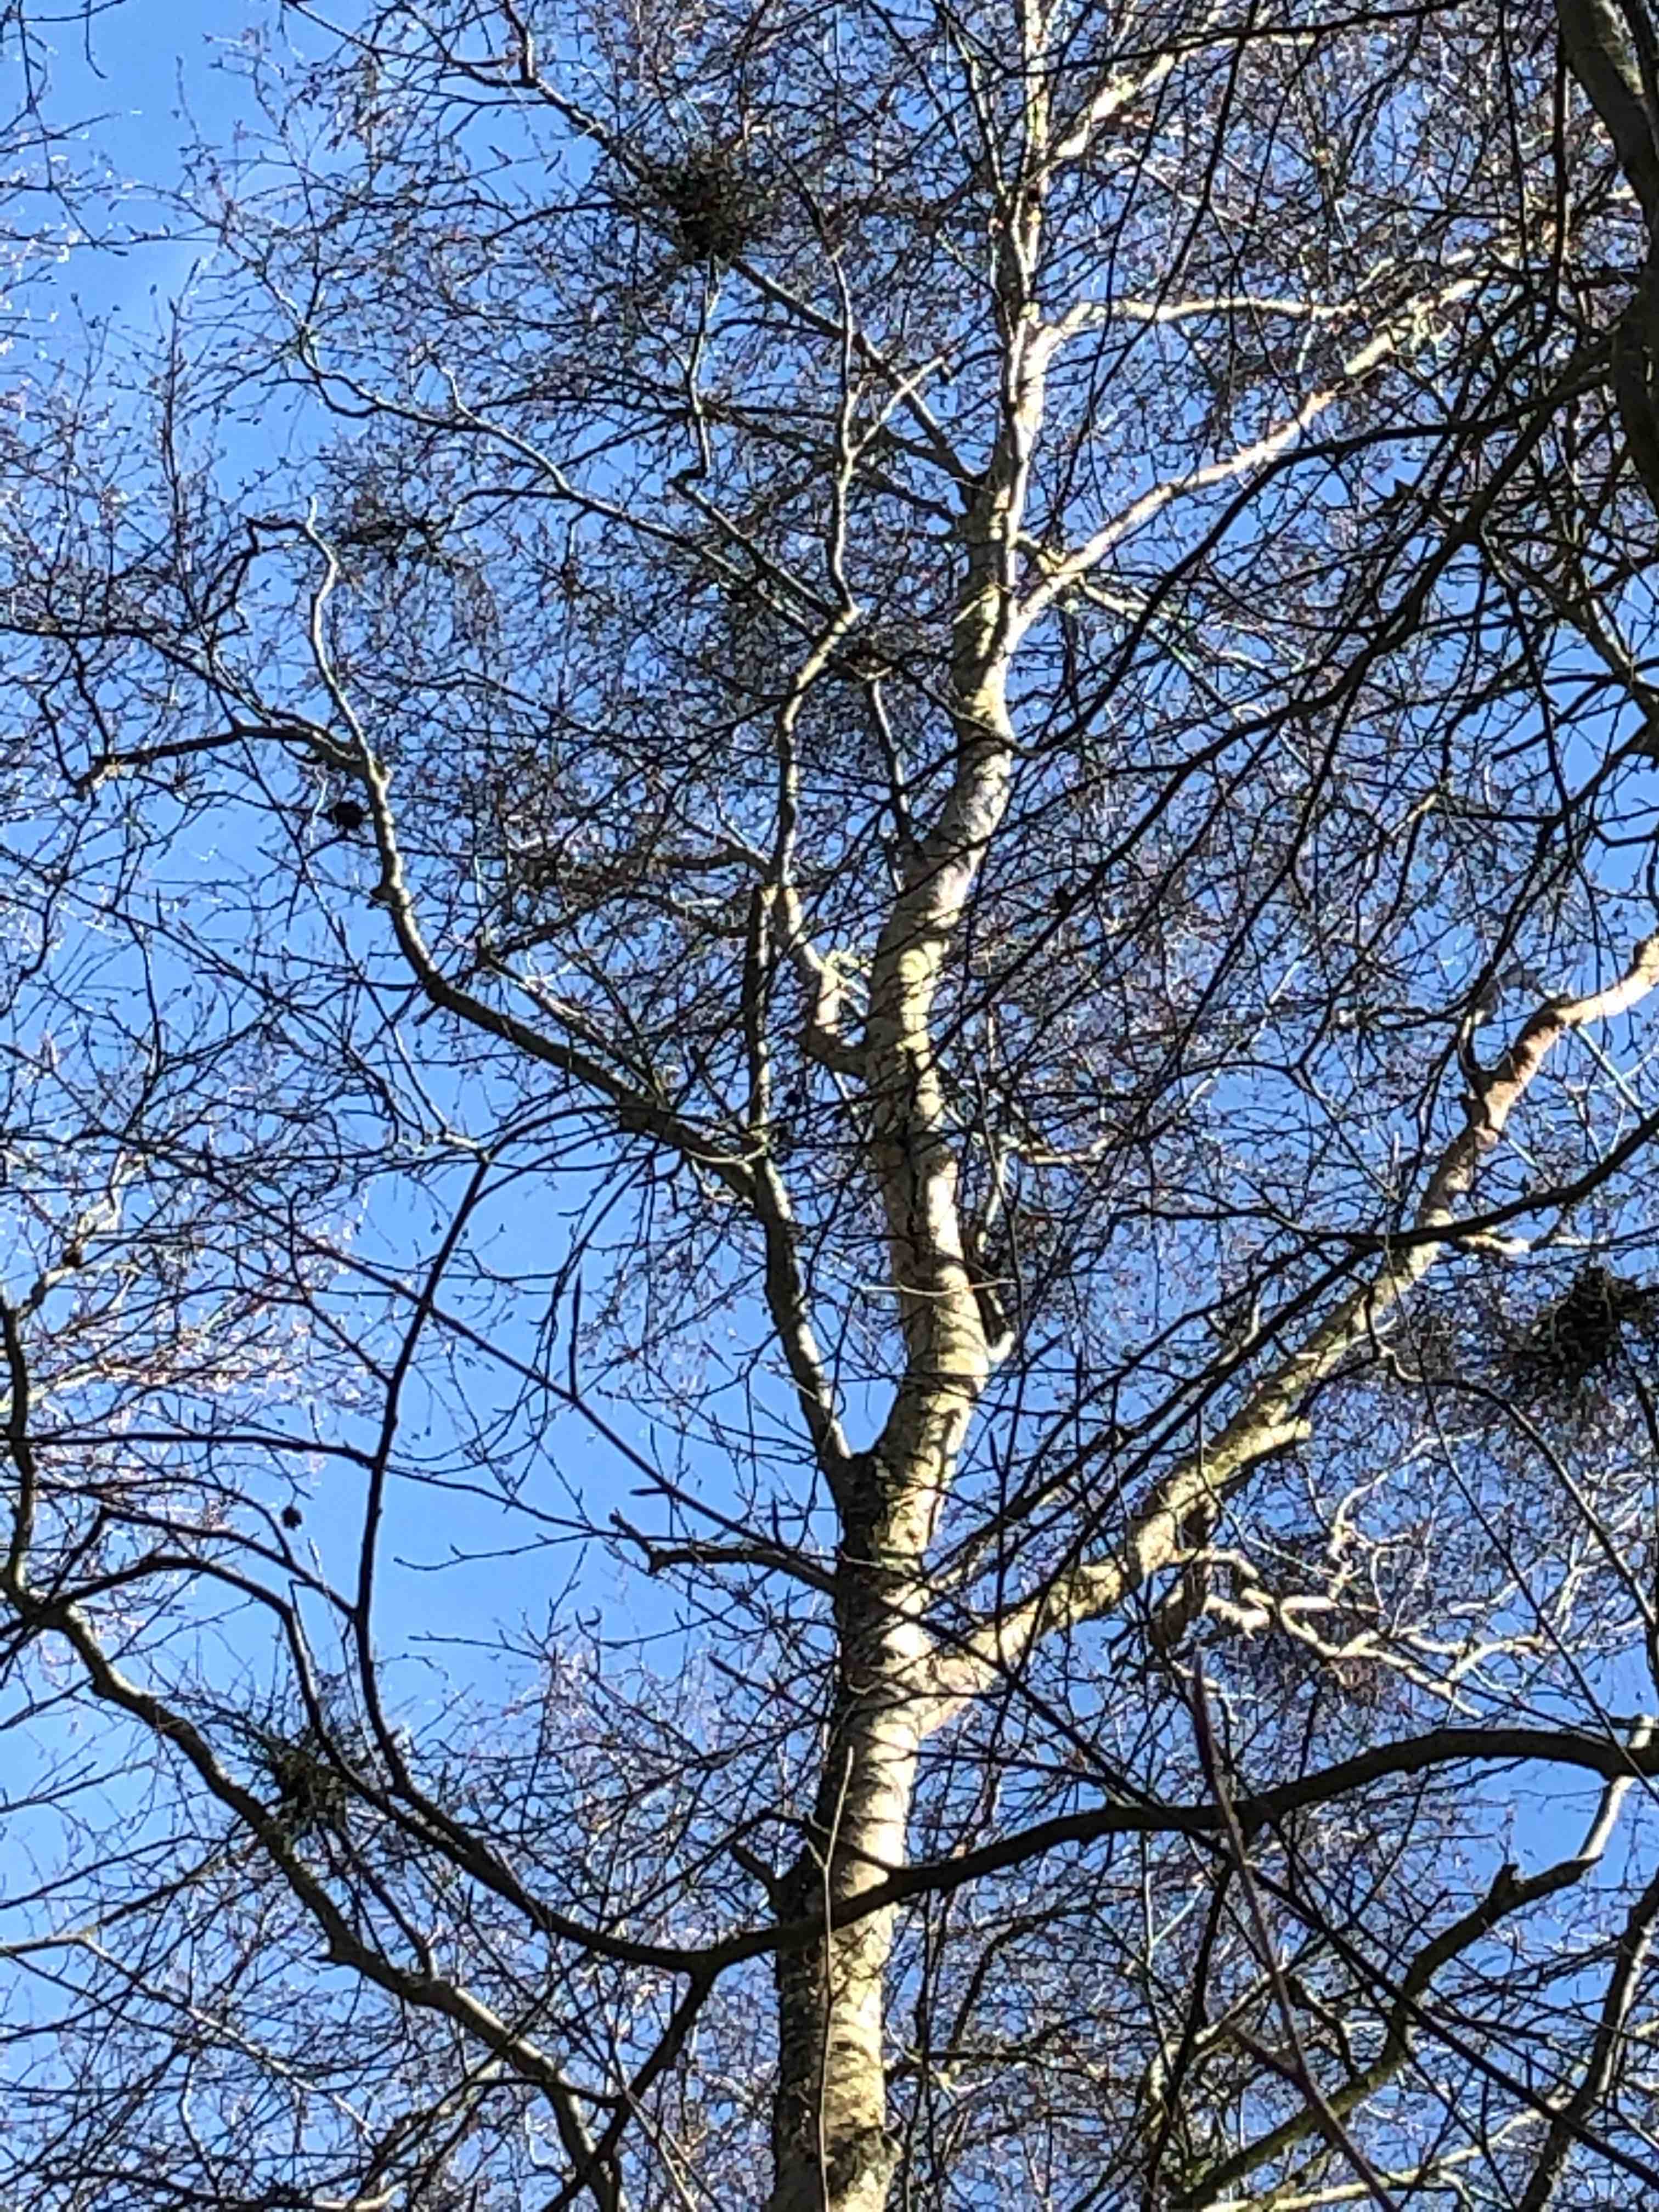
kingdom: Fungi
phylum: Ascomycota
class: Taphrinomycetes
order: Taphrinales
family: Taphrinaceae
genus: Taphrina
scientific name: Taphrina betulina
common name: hekse-sækdug
